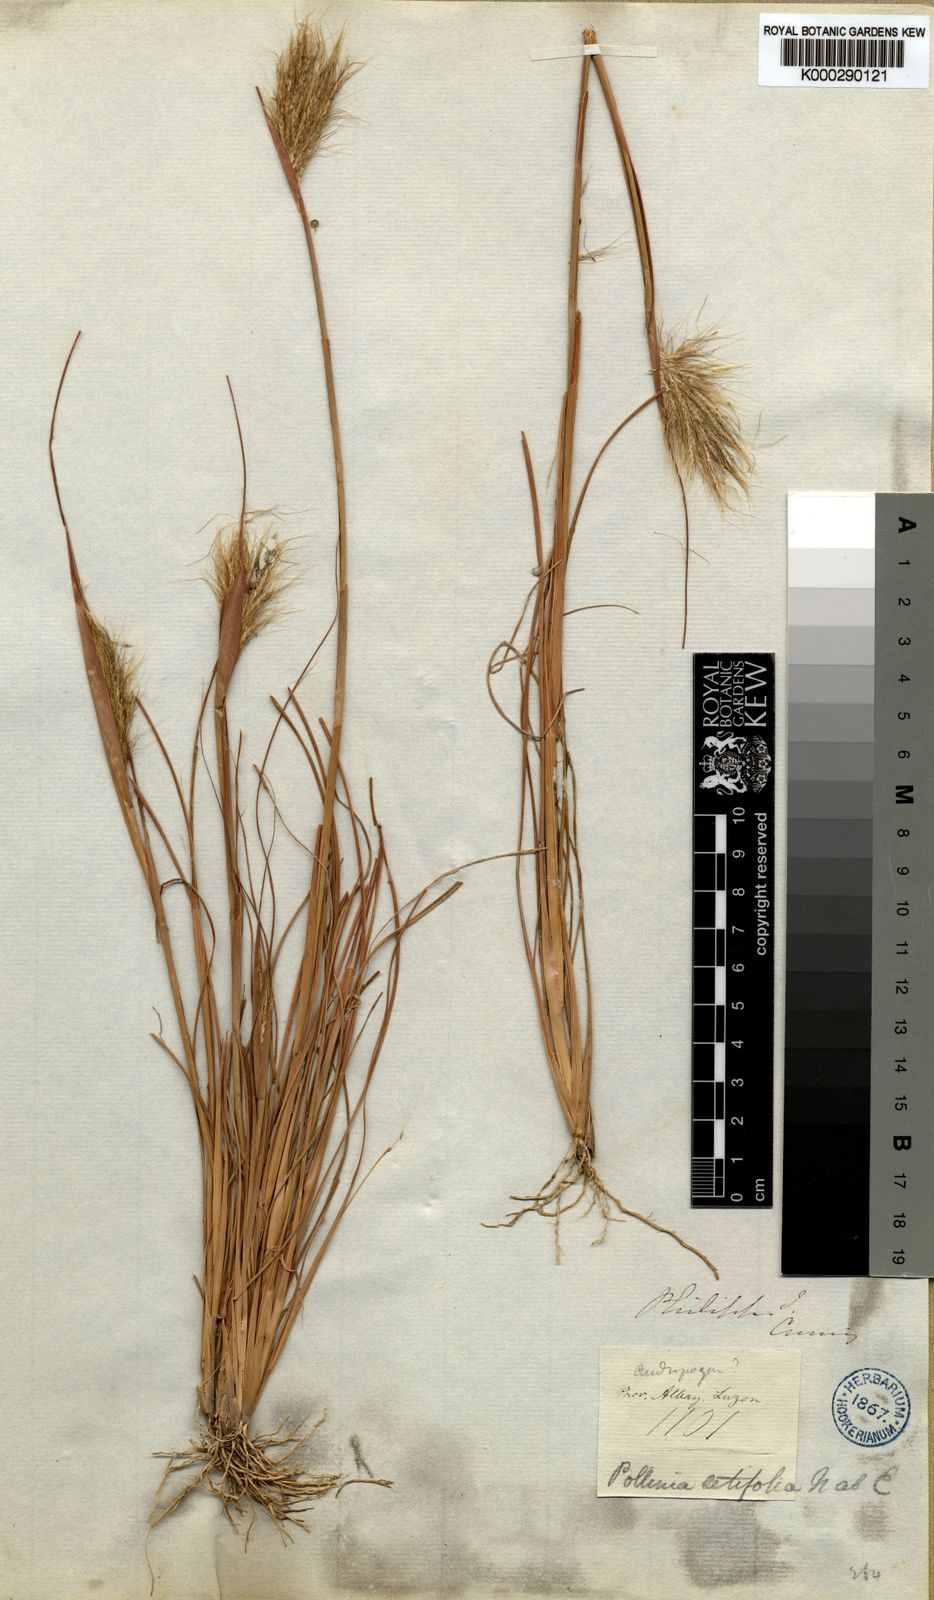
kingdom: Plantae
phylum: Tracheophyta
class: Liliopsida
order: Poales
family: Poaceae
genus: Pseudopogonatherum
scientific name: Pseudopogonatherum contortum
